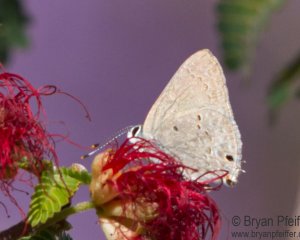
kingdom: Animalia
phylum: Arthropoda
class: Insecta
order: Lepidoptera
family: Lycaenidae
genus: Callicista
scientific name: Callicista columella
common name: Mallow Scrub-Hairstreak
